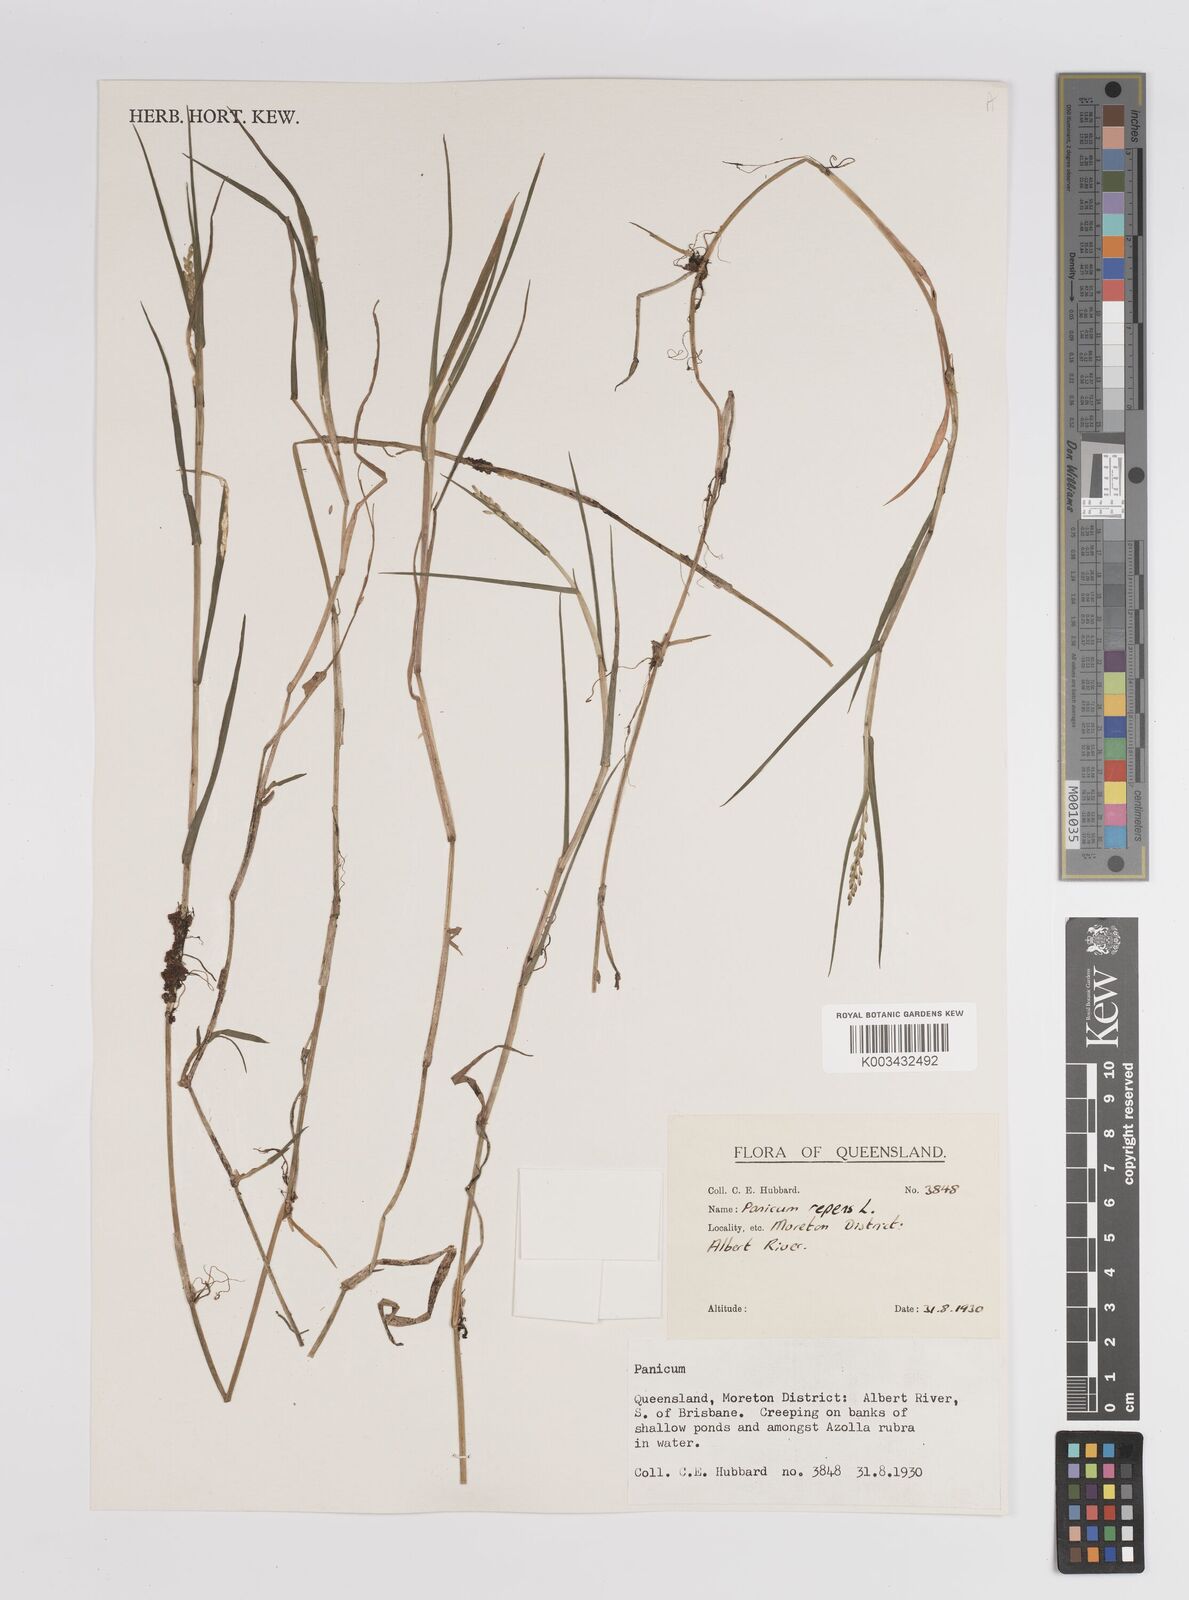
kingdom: Plantae
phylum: Tracheophyta
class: Liliopsida
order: Poales
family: Poaceae
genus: Panicum
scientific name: Panicum repens
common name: Torpedo grass
